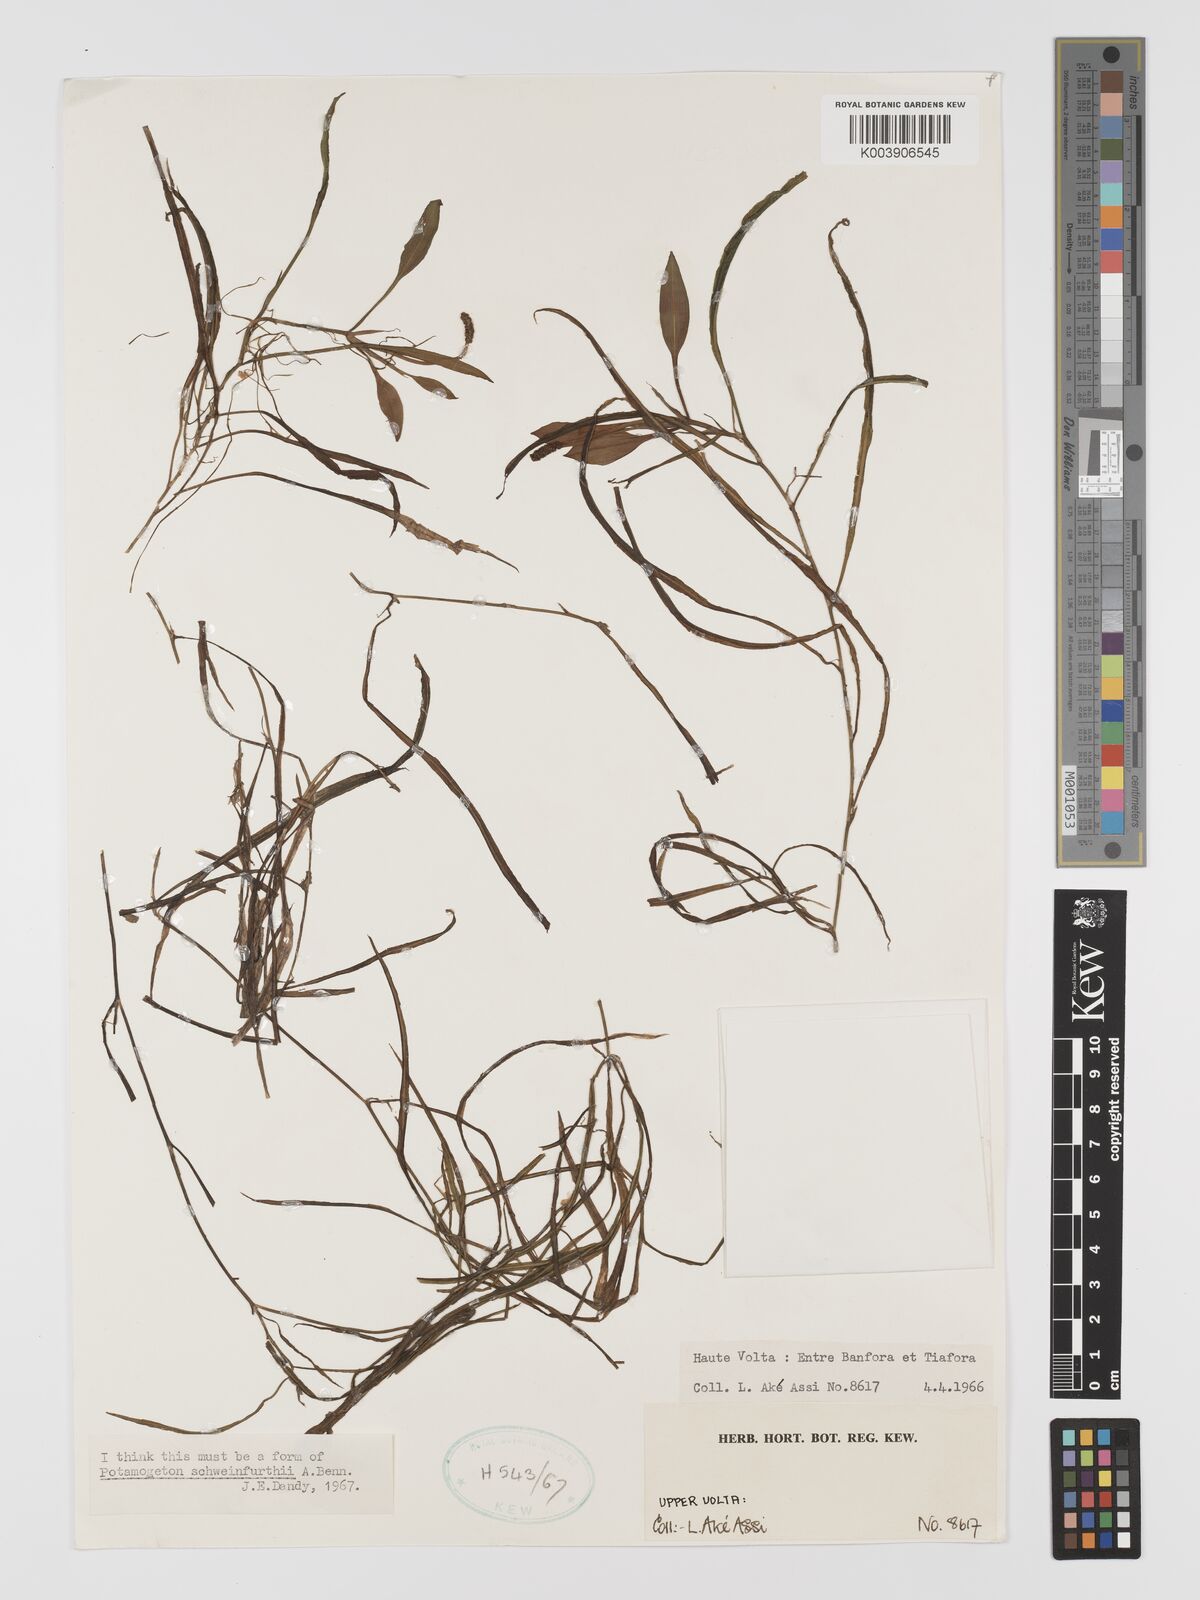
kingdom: Plantae
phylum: Tracheophyta
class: Liliopsida
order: Alismatales
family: Potamogetonaceae
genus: Potamogeton
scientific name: Potamogeton schweinfurthii
